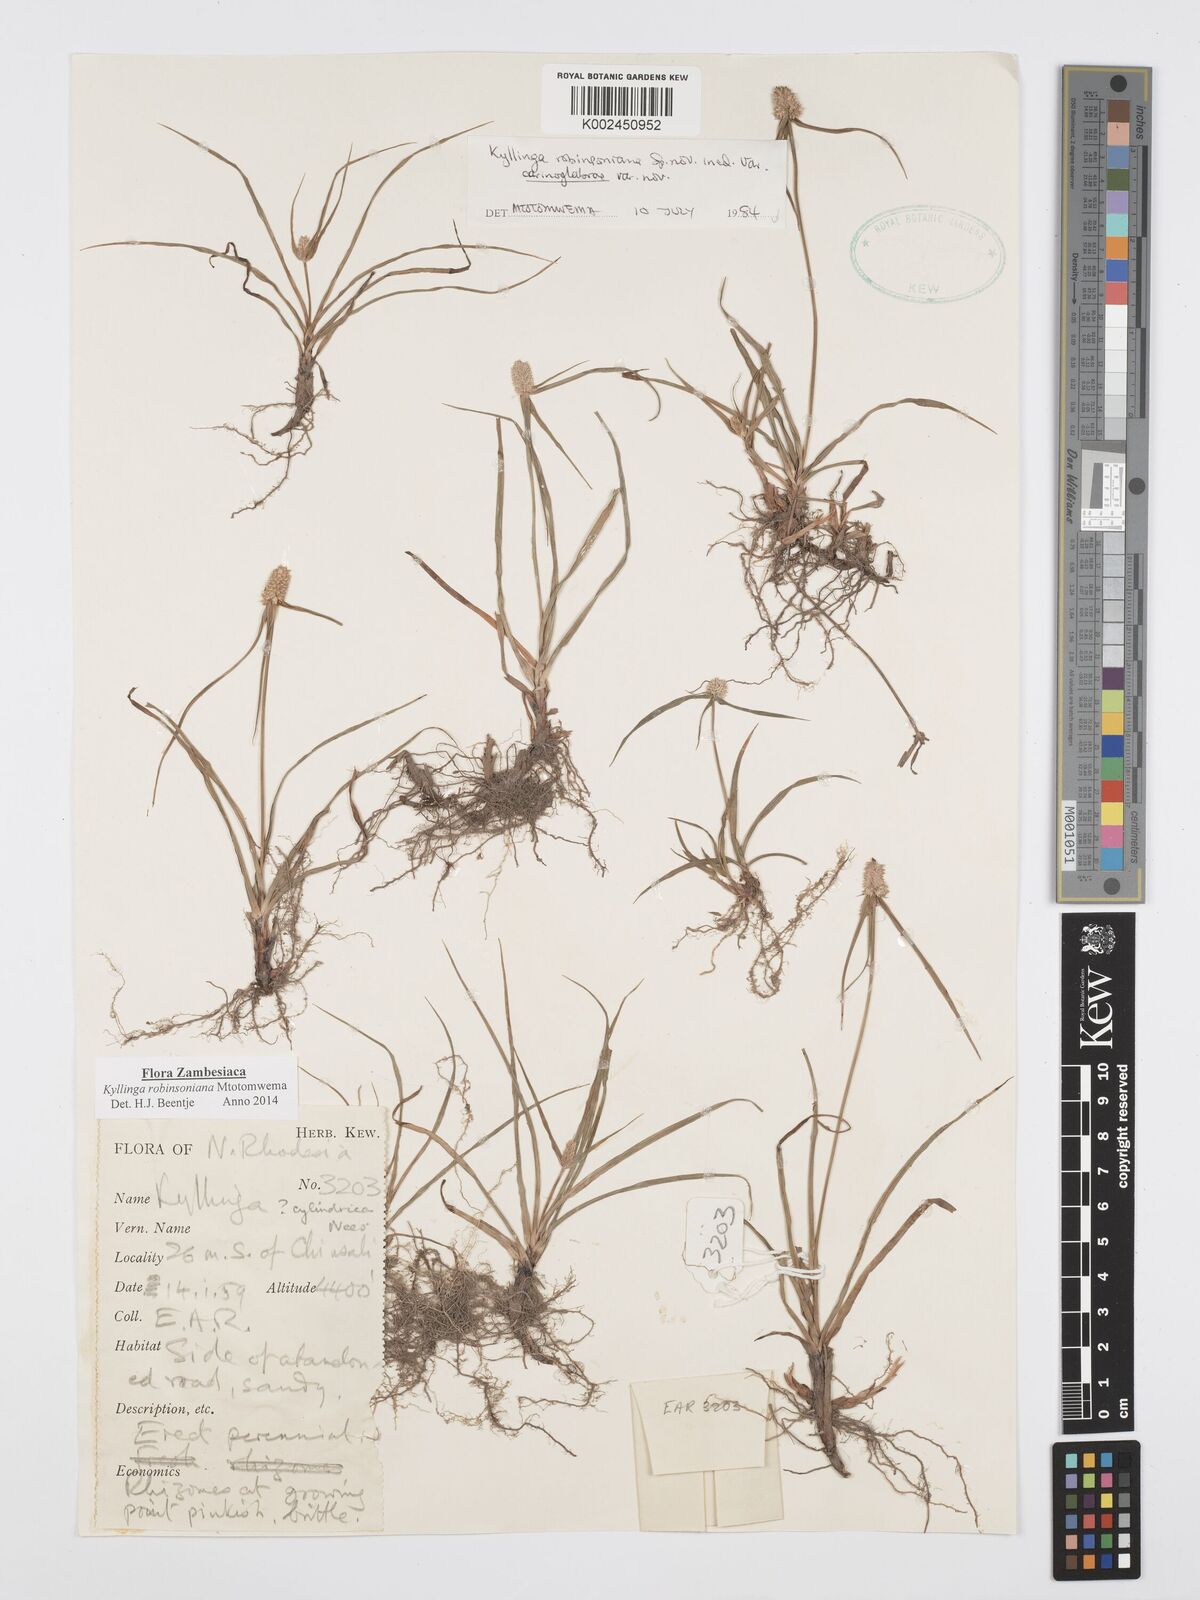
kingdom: Plantae
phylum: Tracheophyta
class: Liliopsida
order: Poales
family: Cyperaceae
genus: Cyperus
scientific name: Cyperus robinsonianus
